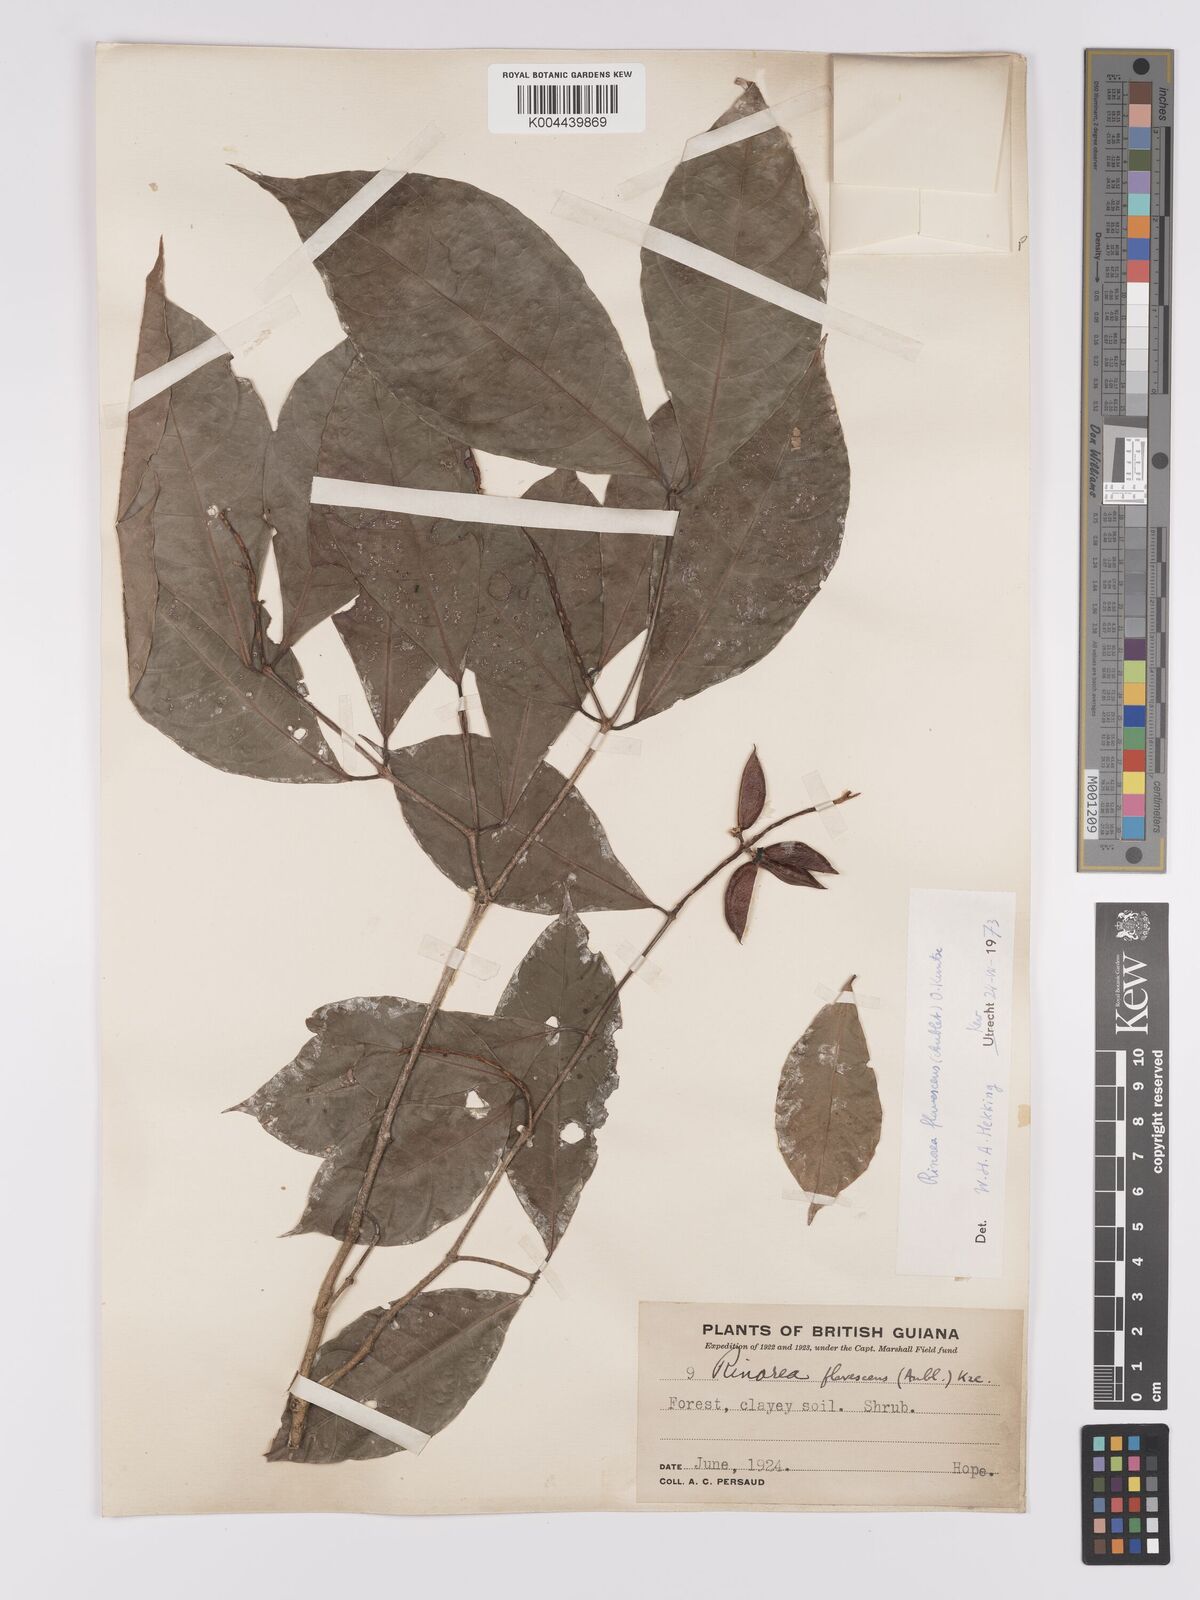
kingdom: Plantae
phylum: Tracheophyta
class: Magnoliopsida
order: Malpighiales
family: Violaceae
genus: Rinorea
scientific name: Rinorea flavescens
